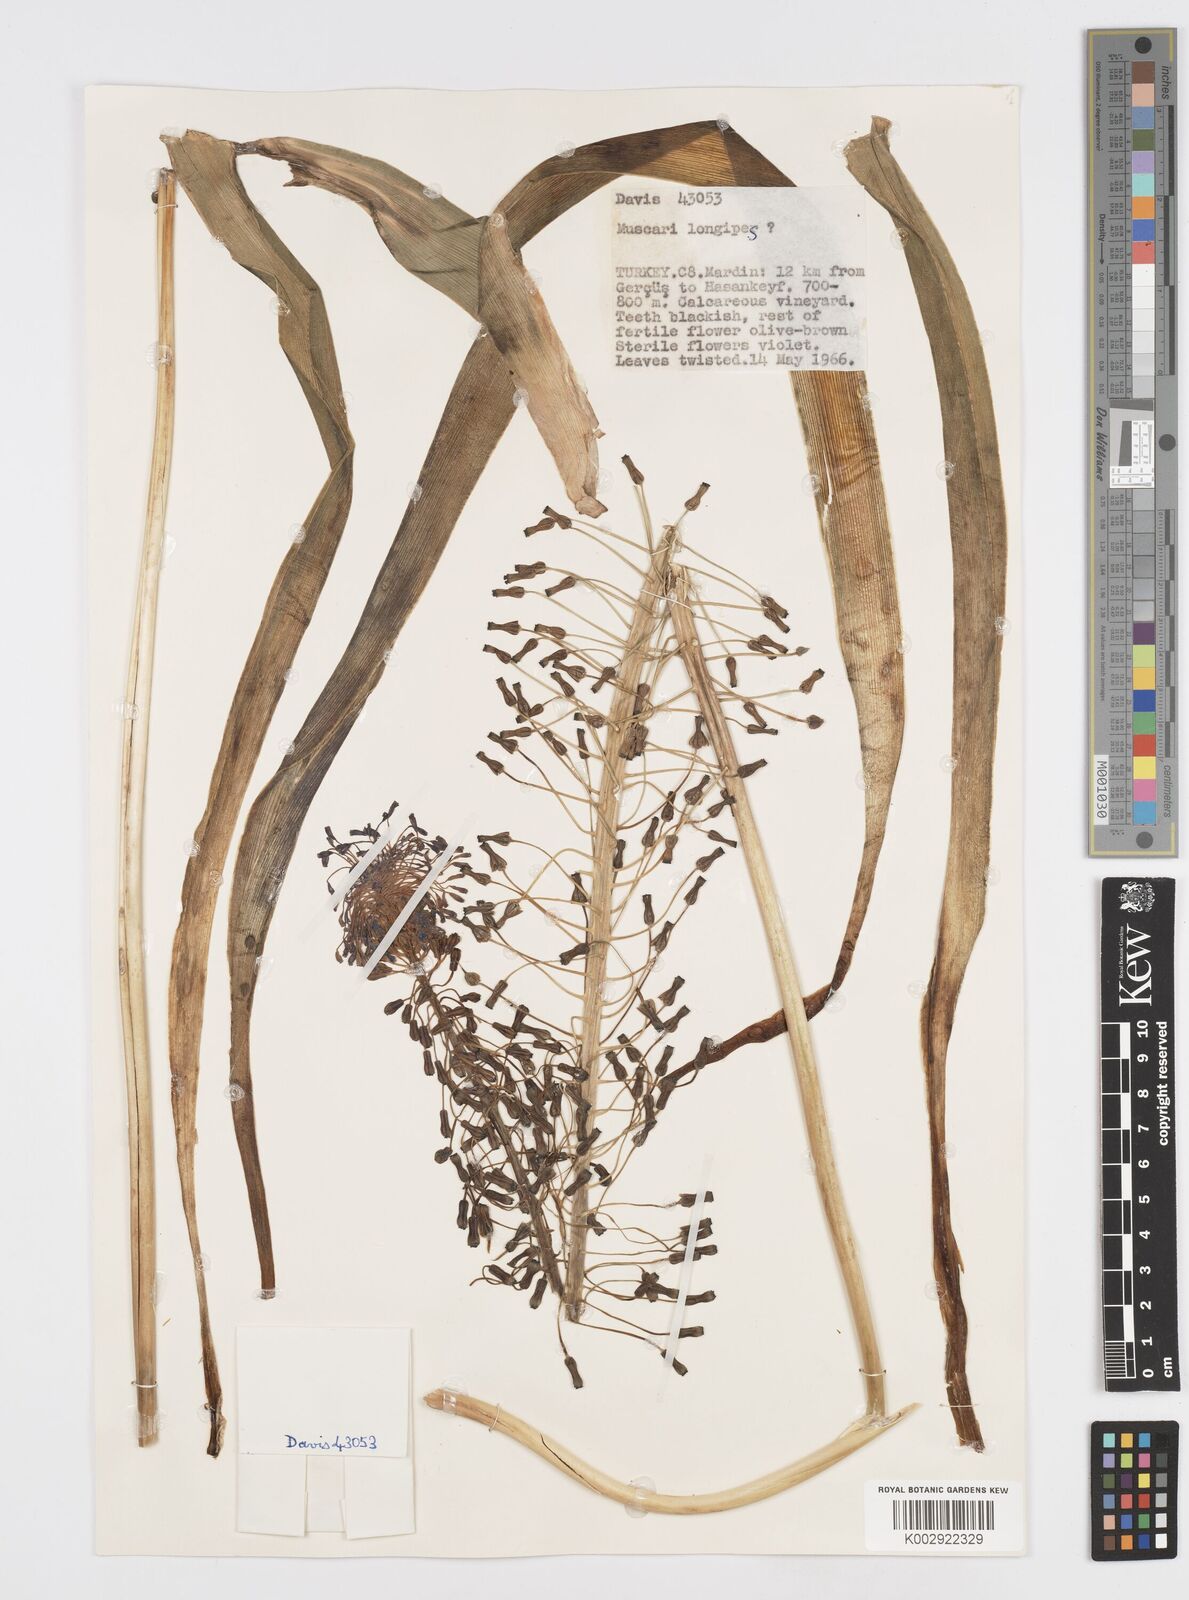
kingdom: Plantae
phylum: Tracheophyta
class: Liliopsida
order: Asparagales
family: Asparagaceae
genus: Muscari
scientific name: Muscari longipes
